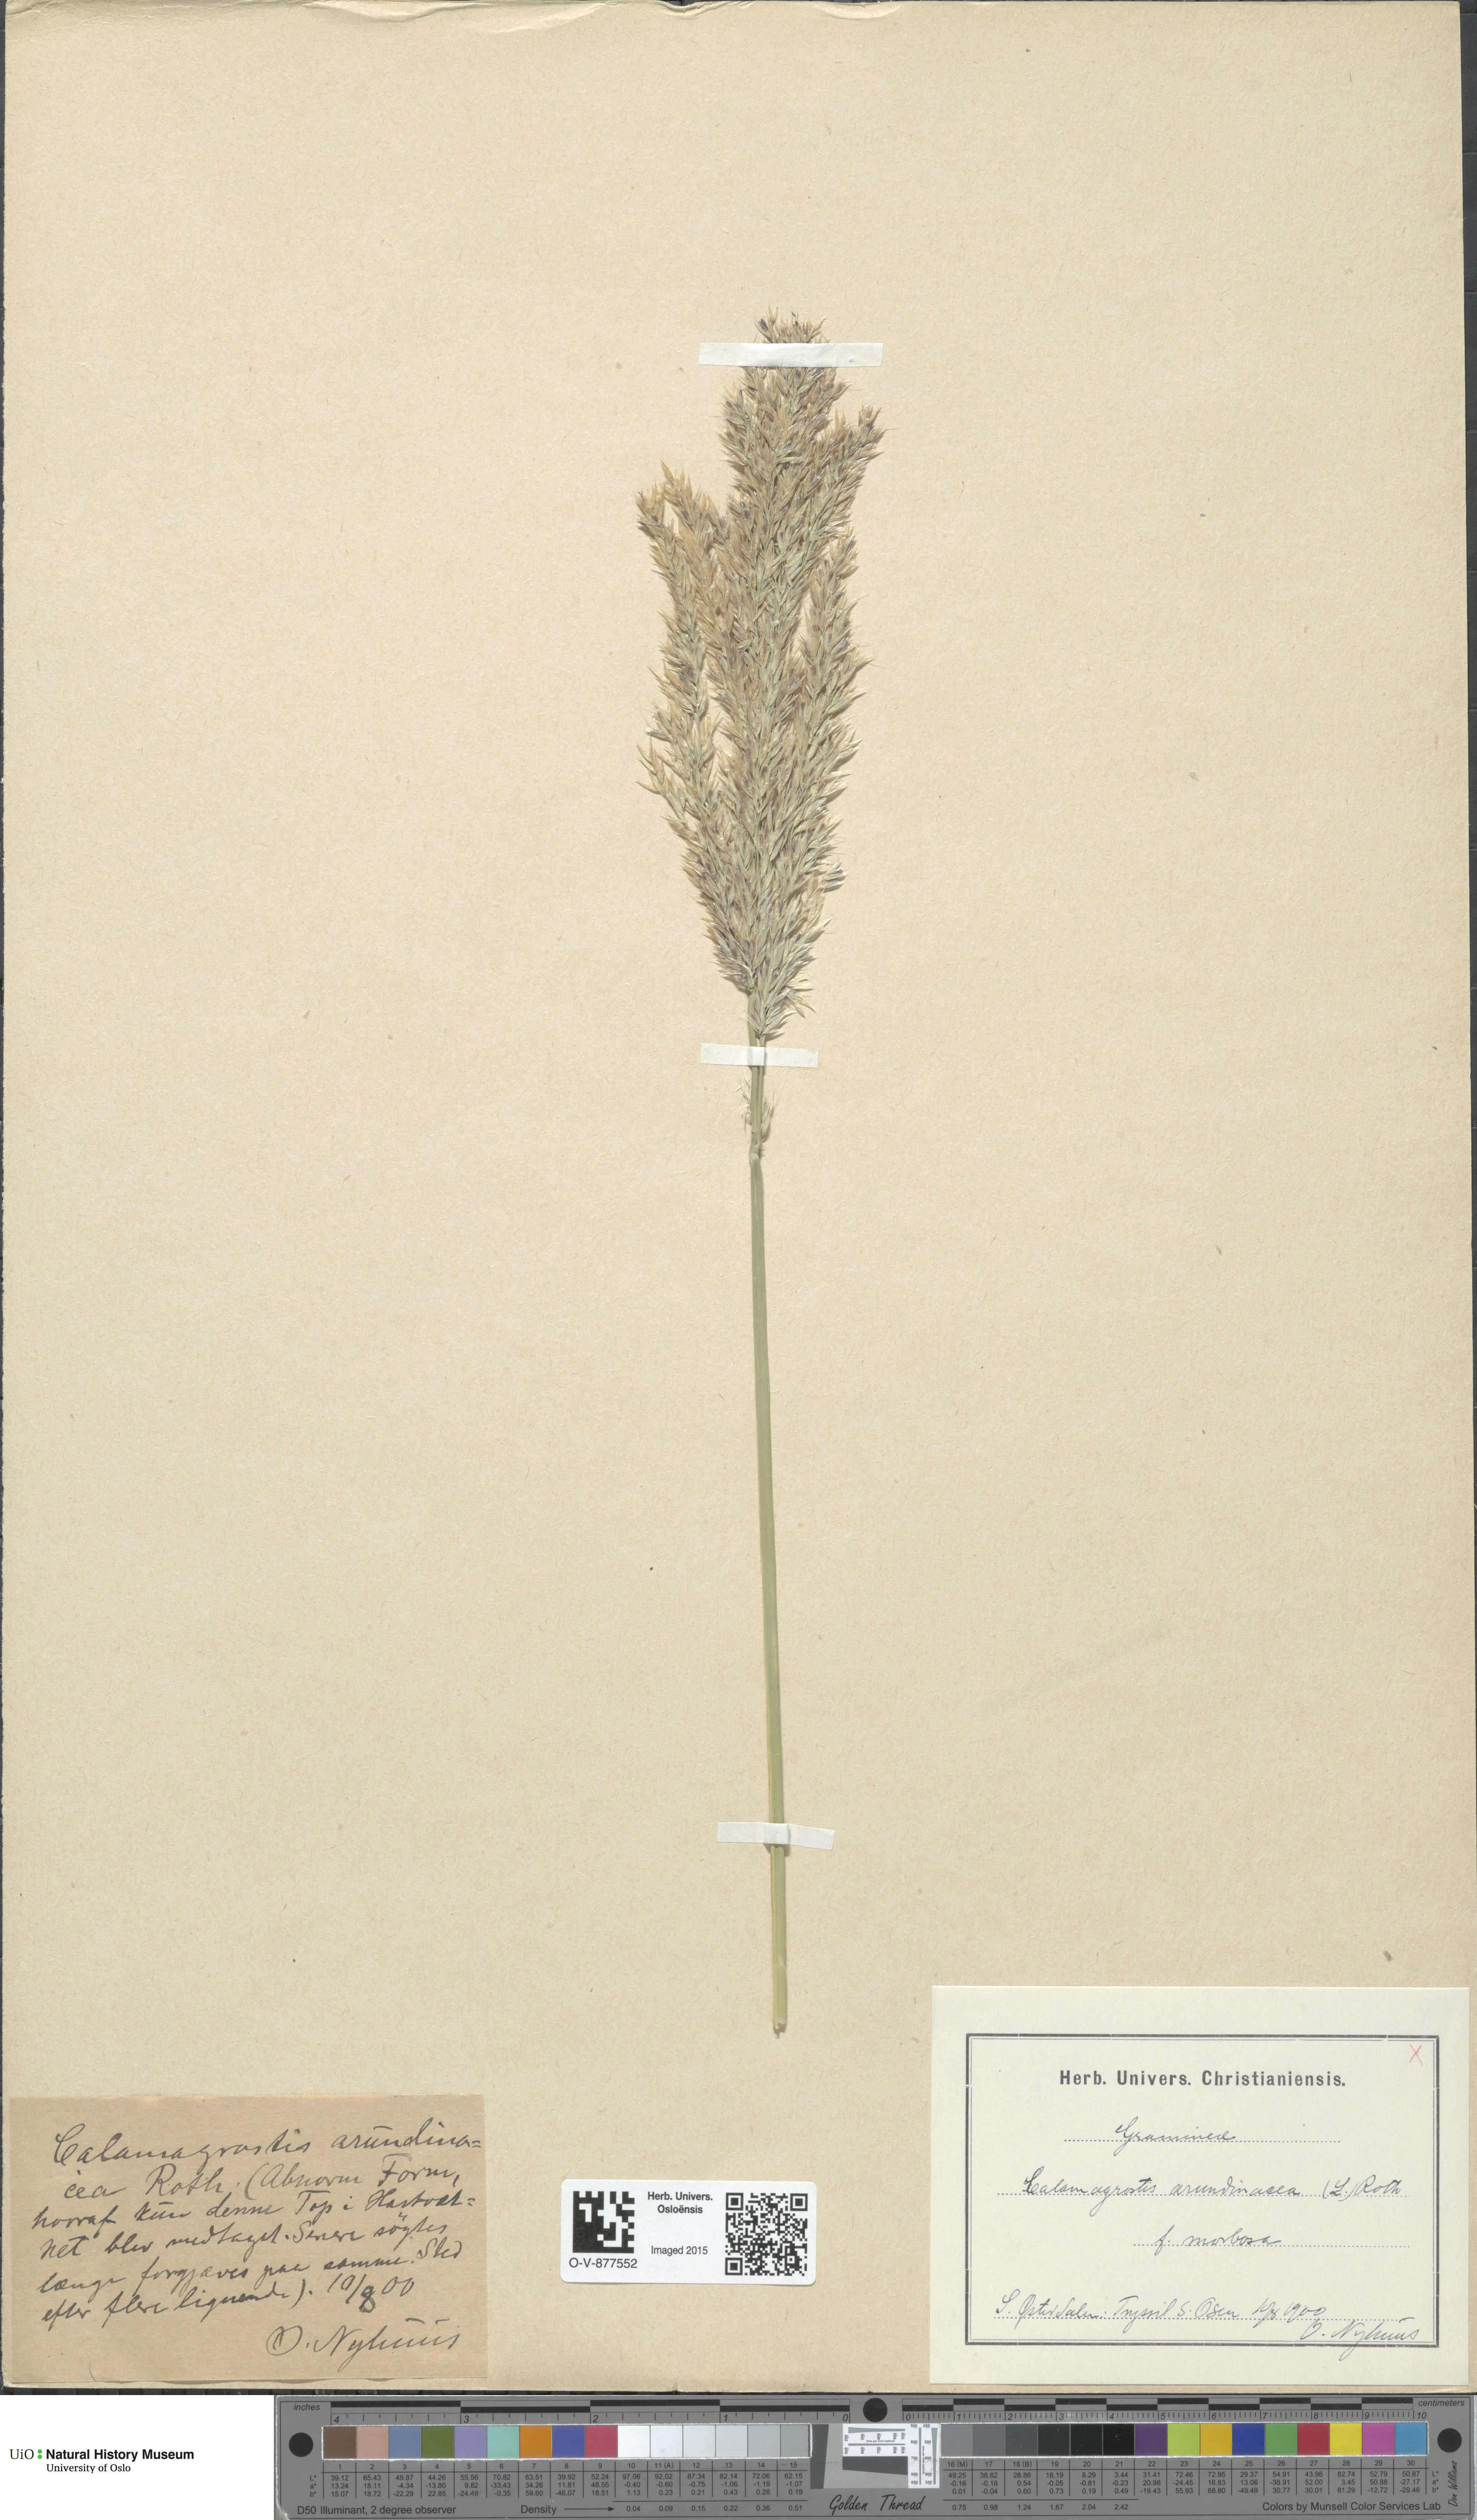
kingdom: Plantae
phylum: Tracheophyta
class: Liliopsida
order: Poales
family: Poaceae
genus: Calamagrostis
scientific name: Calamagrostis arundinacea
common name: Metskastik
